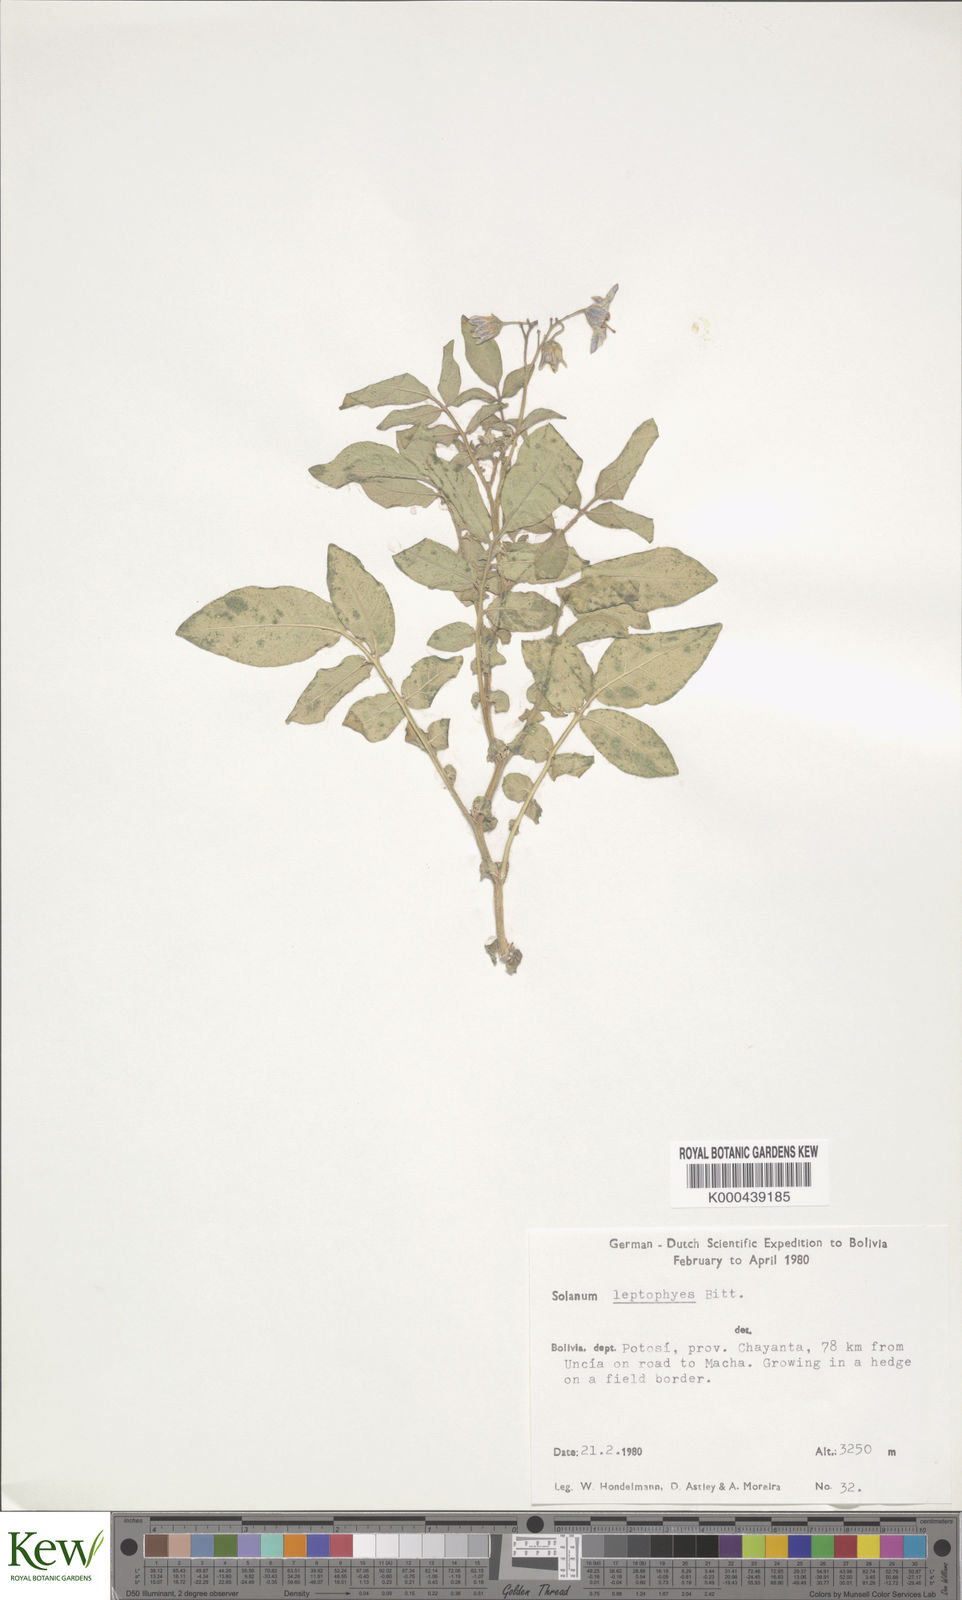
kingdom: Plantae
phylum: Tracheophyta
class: Magnoliopsida
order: Solanales
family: Solanaceae
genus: Solanum
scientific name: Solanum brevicaule
